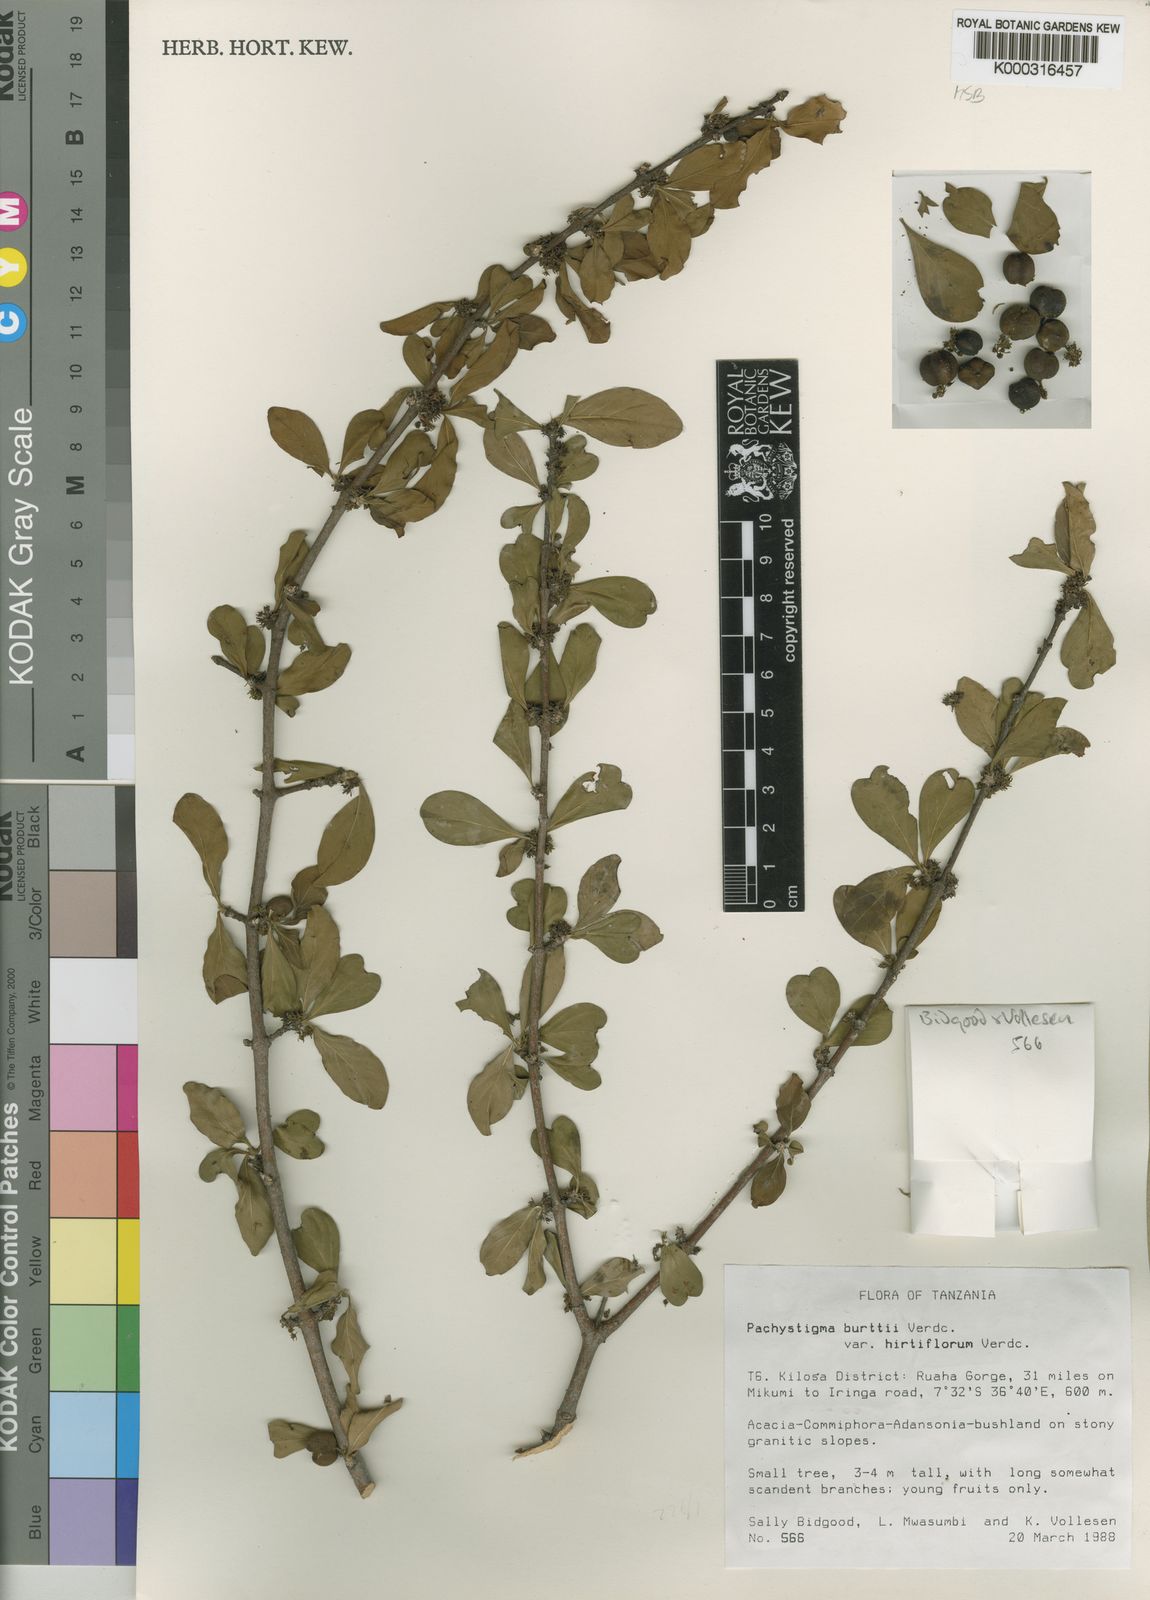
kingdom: Plantae
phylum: Tracheophyta
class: Magnoliopsida
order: Gentianales
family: Rubiaceae
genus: Vangueria
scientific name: Vangueria burttii
